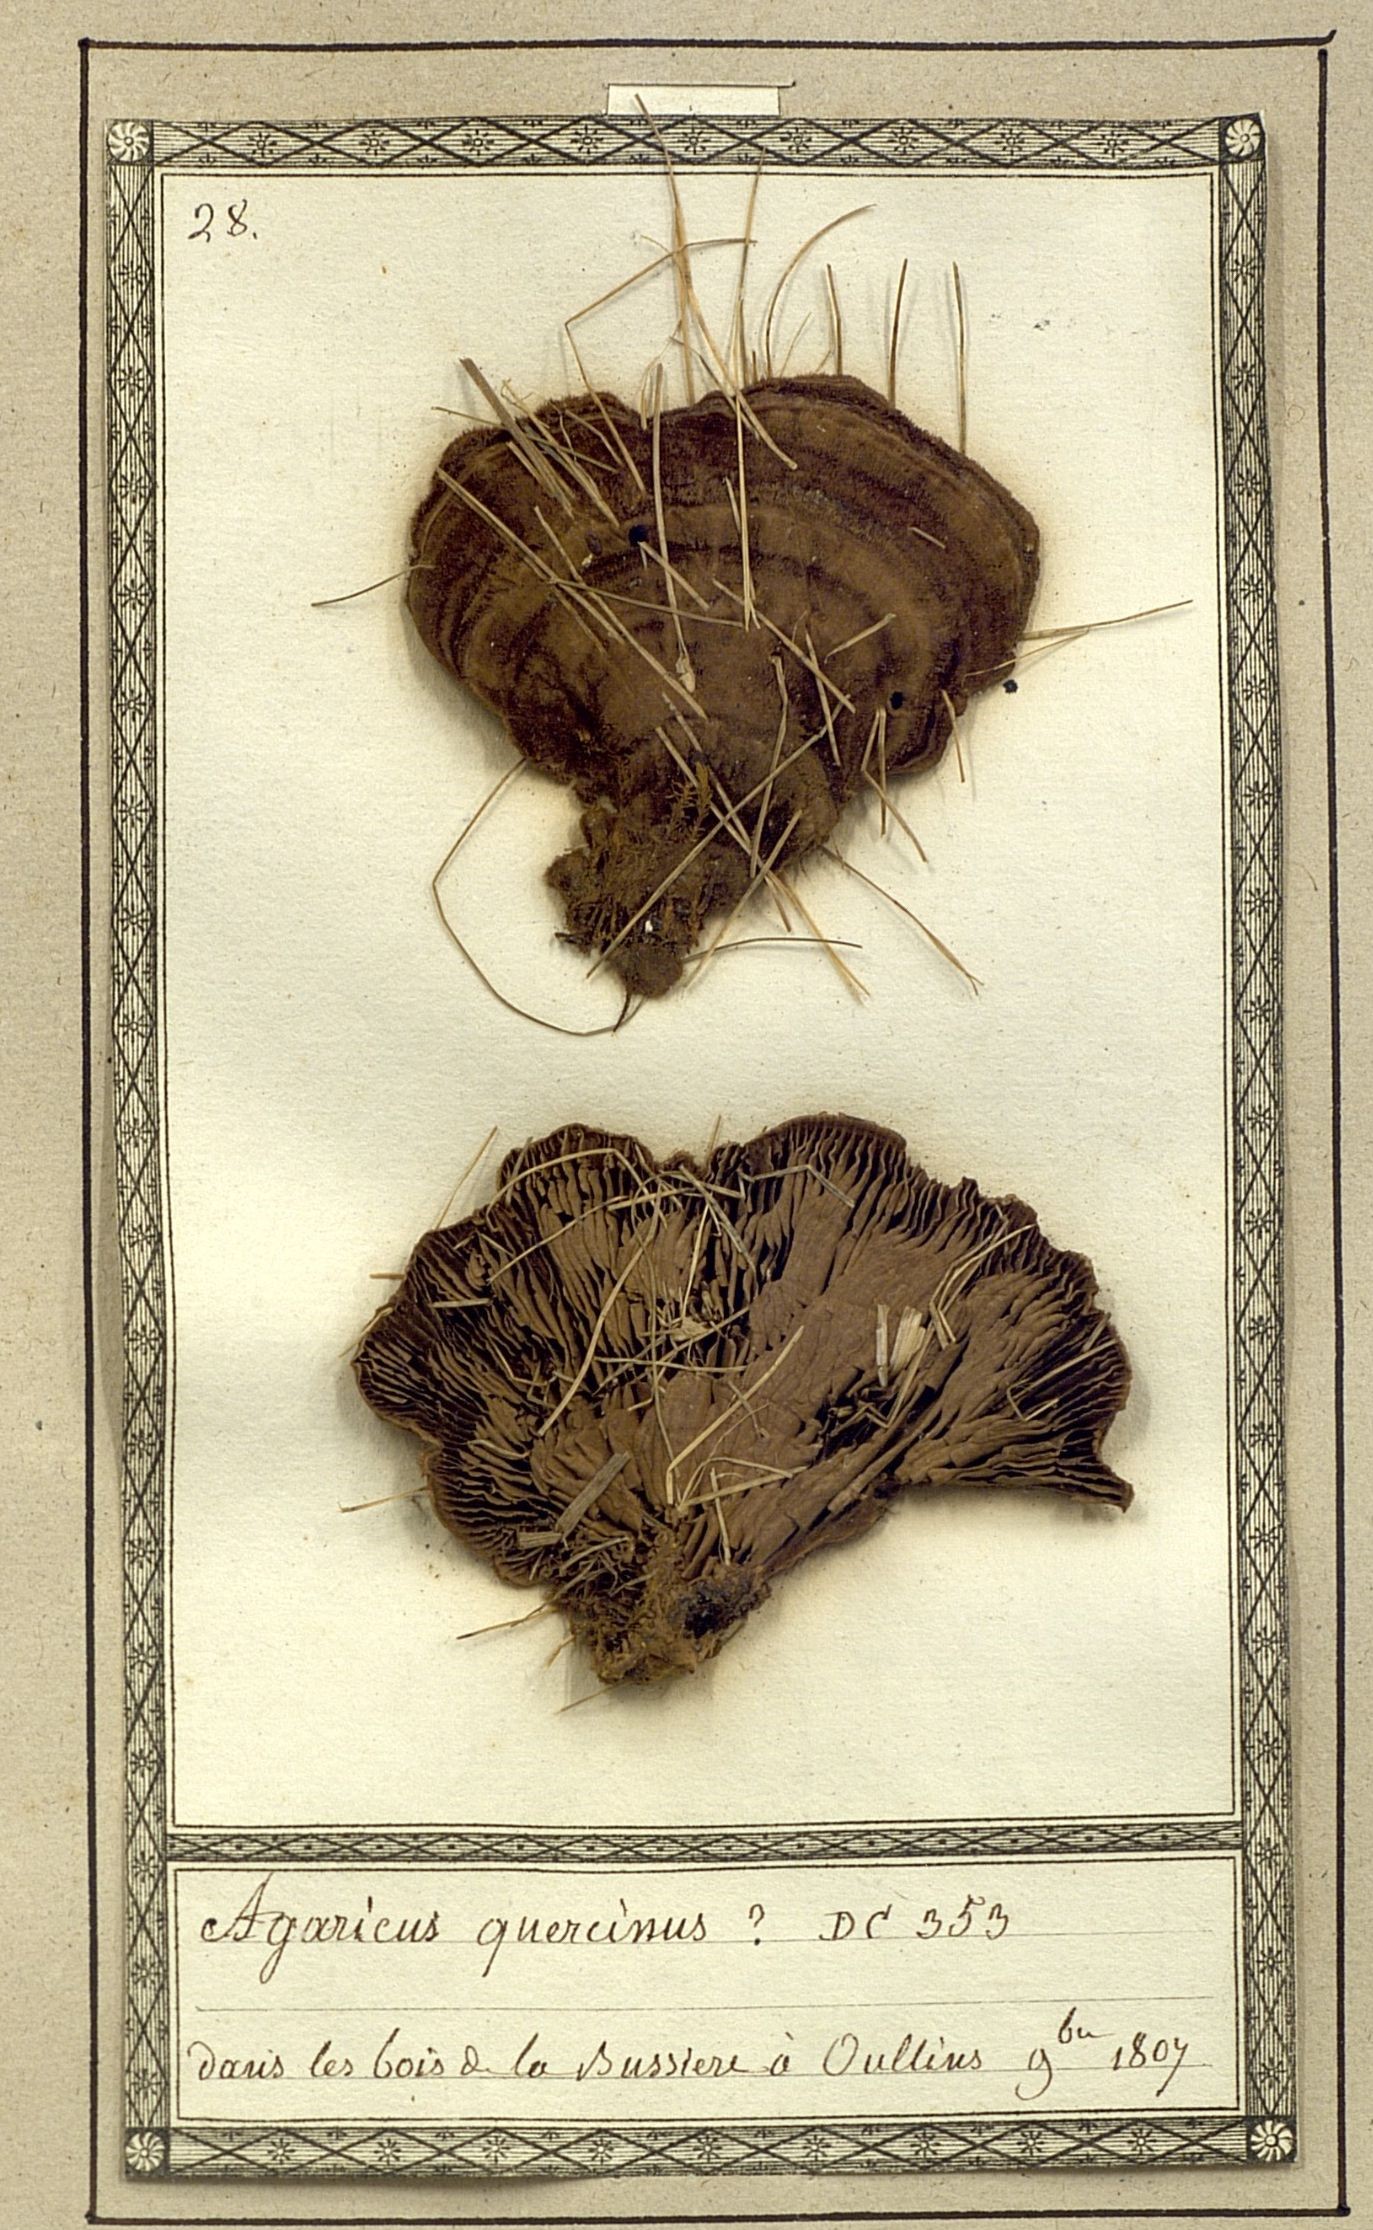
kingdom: Fungi
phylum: Basidiomycota
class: Agaricomycetes
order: Polyporales
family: Fomitopsidaceae
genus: Daedalea
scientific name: Daedalea quercina
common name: Oak mazegill
